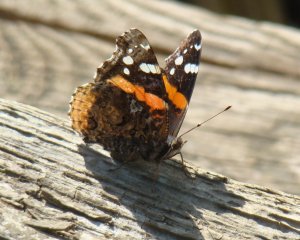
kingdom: Animalia
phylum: Arthropoda
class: Insecta
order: Lepidoptera
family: Nymphalidae
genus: Vanessa
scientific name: Vanessa atalanta
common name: Red Admiral
